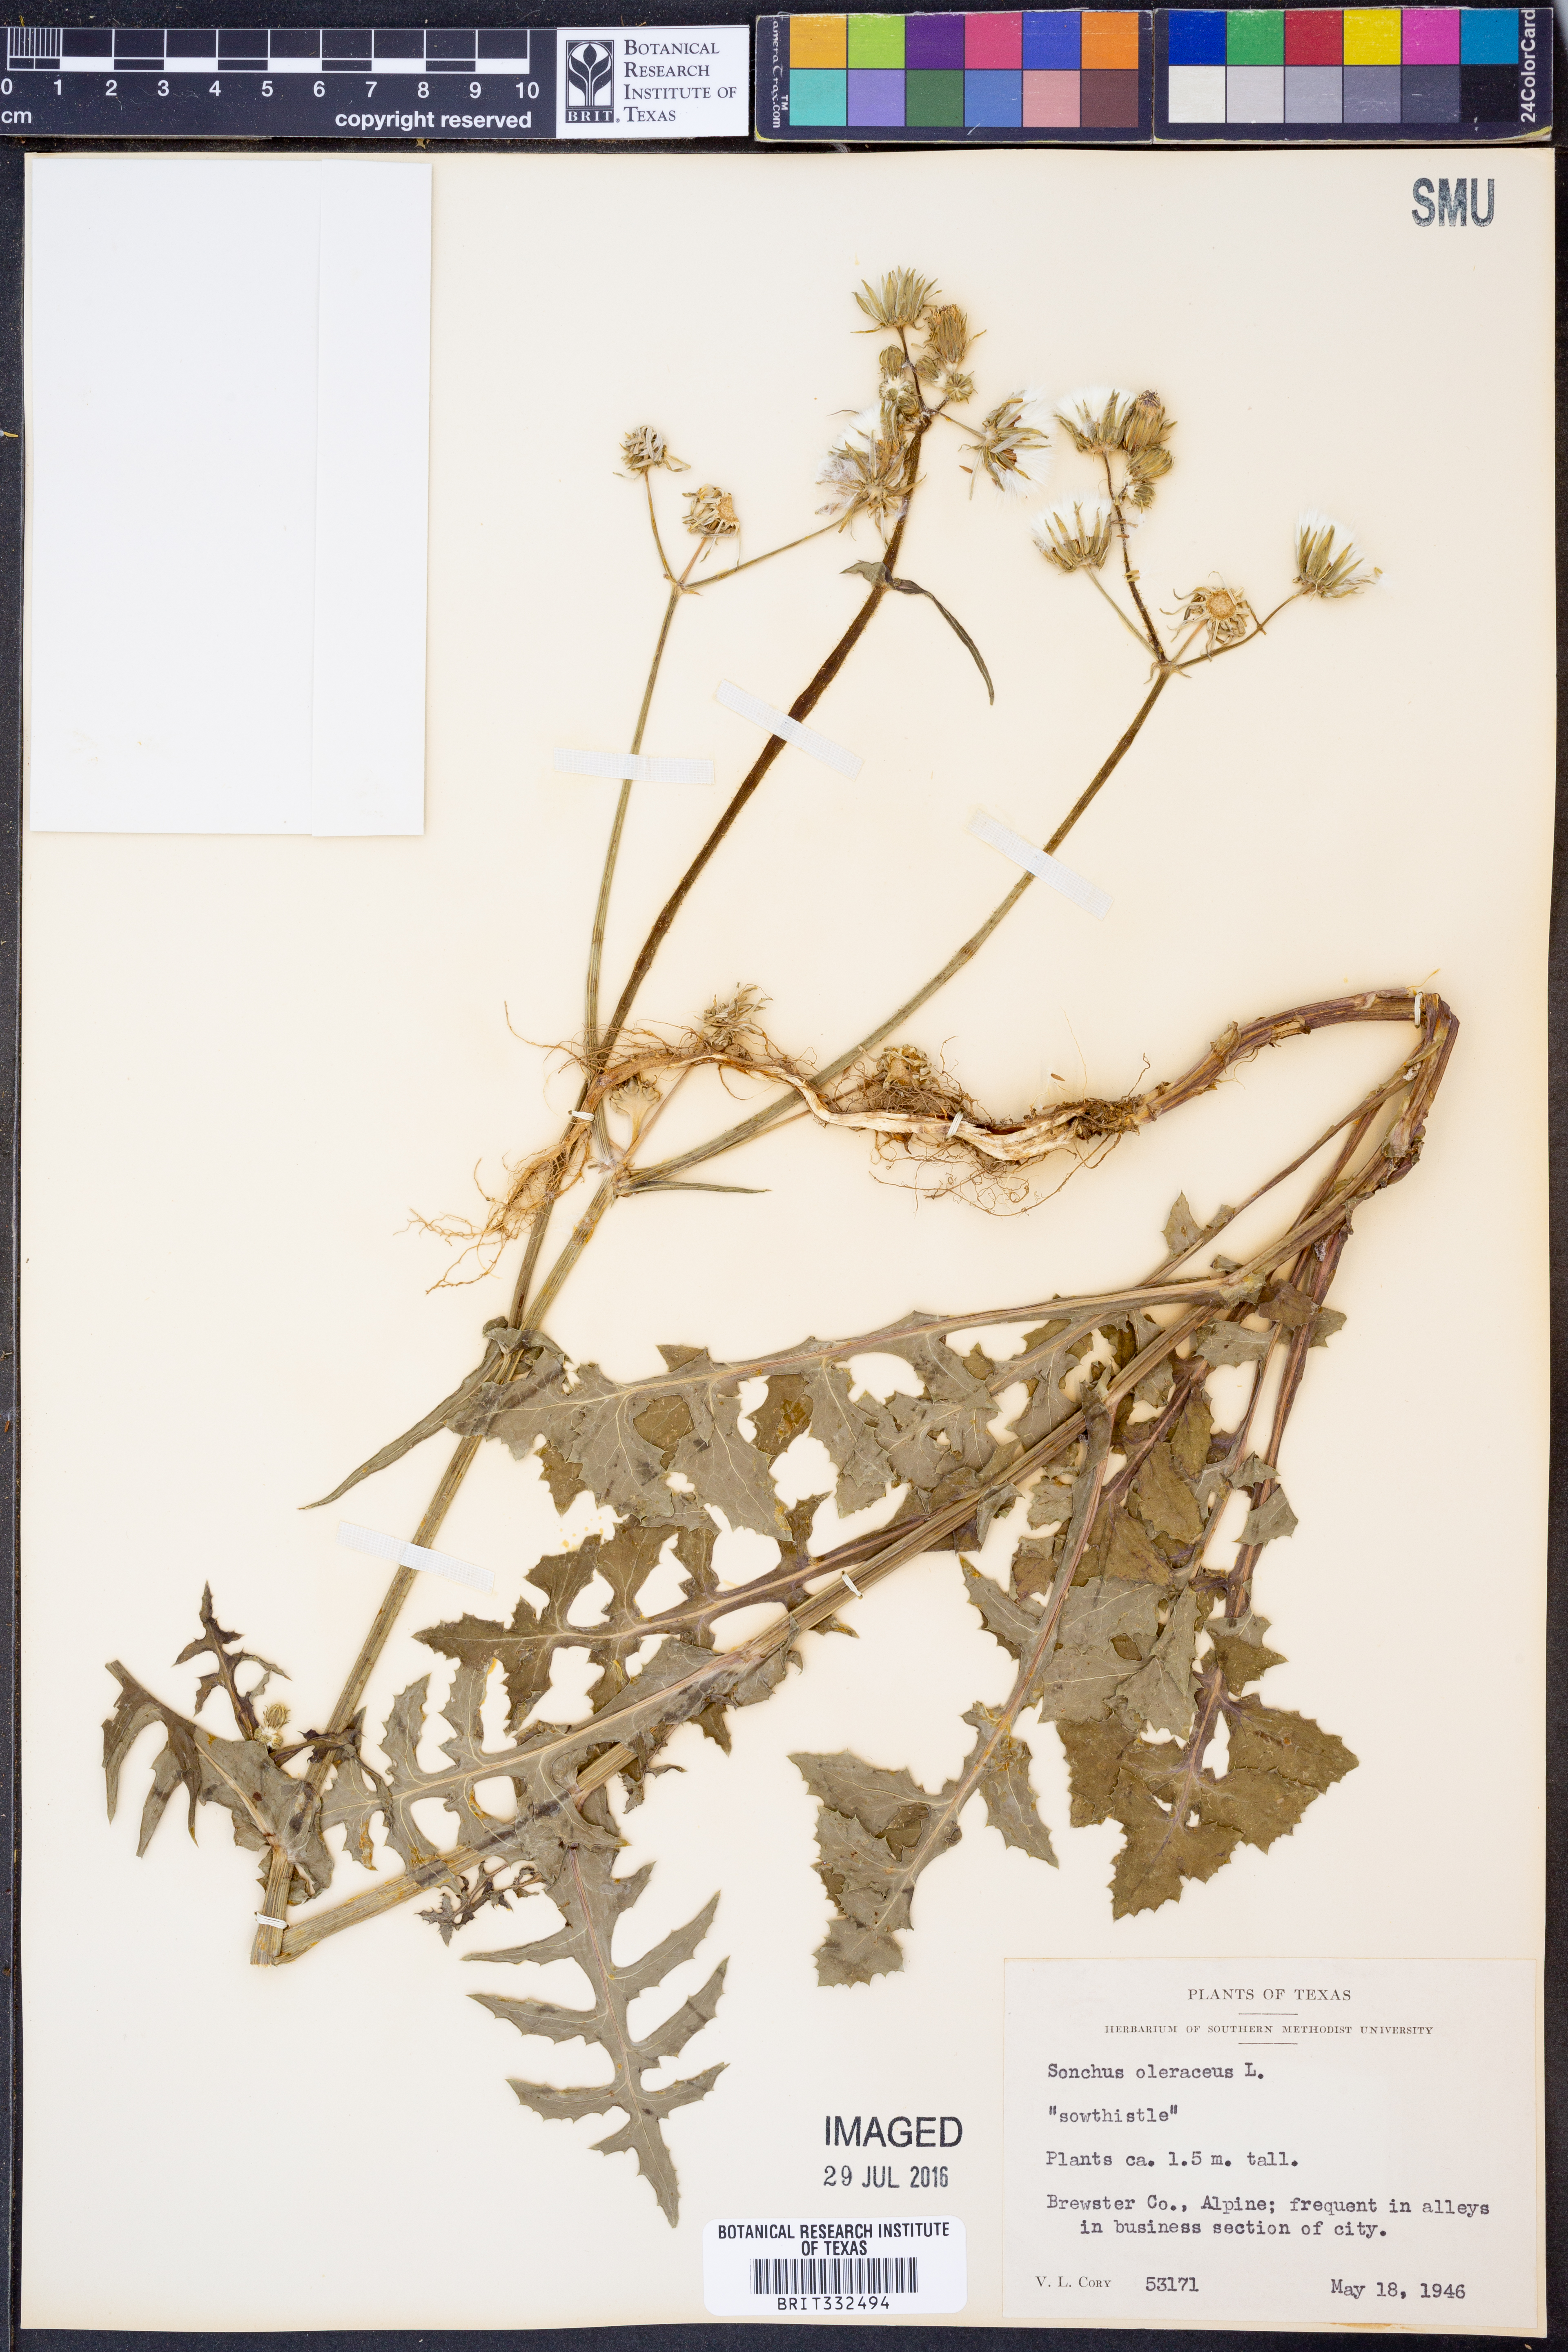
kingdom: Plantae
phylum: Tracheophyta
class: Magnoliopsida
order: Asterales
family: Asteraceae
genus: Sonchus
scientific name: Sonchus oleraceus
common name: Common sowthistle
